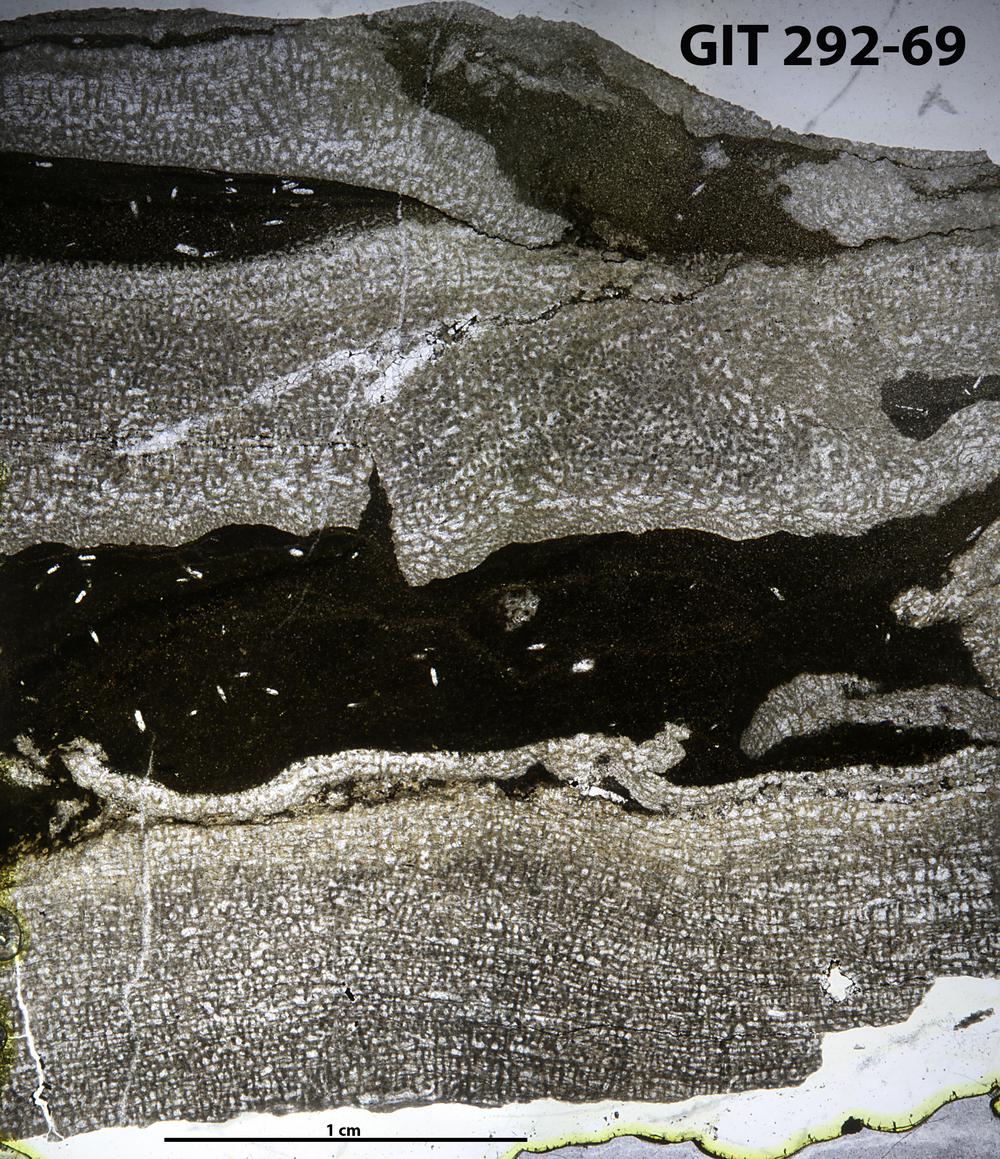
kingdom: Animalia
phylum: Porifera
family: Stromatoporidae
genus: Stromatopora
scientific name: Stromatopora
